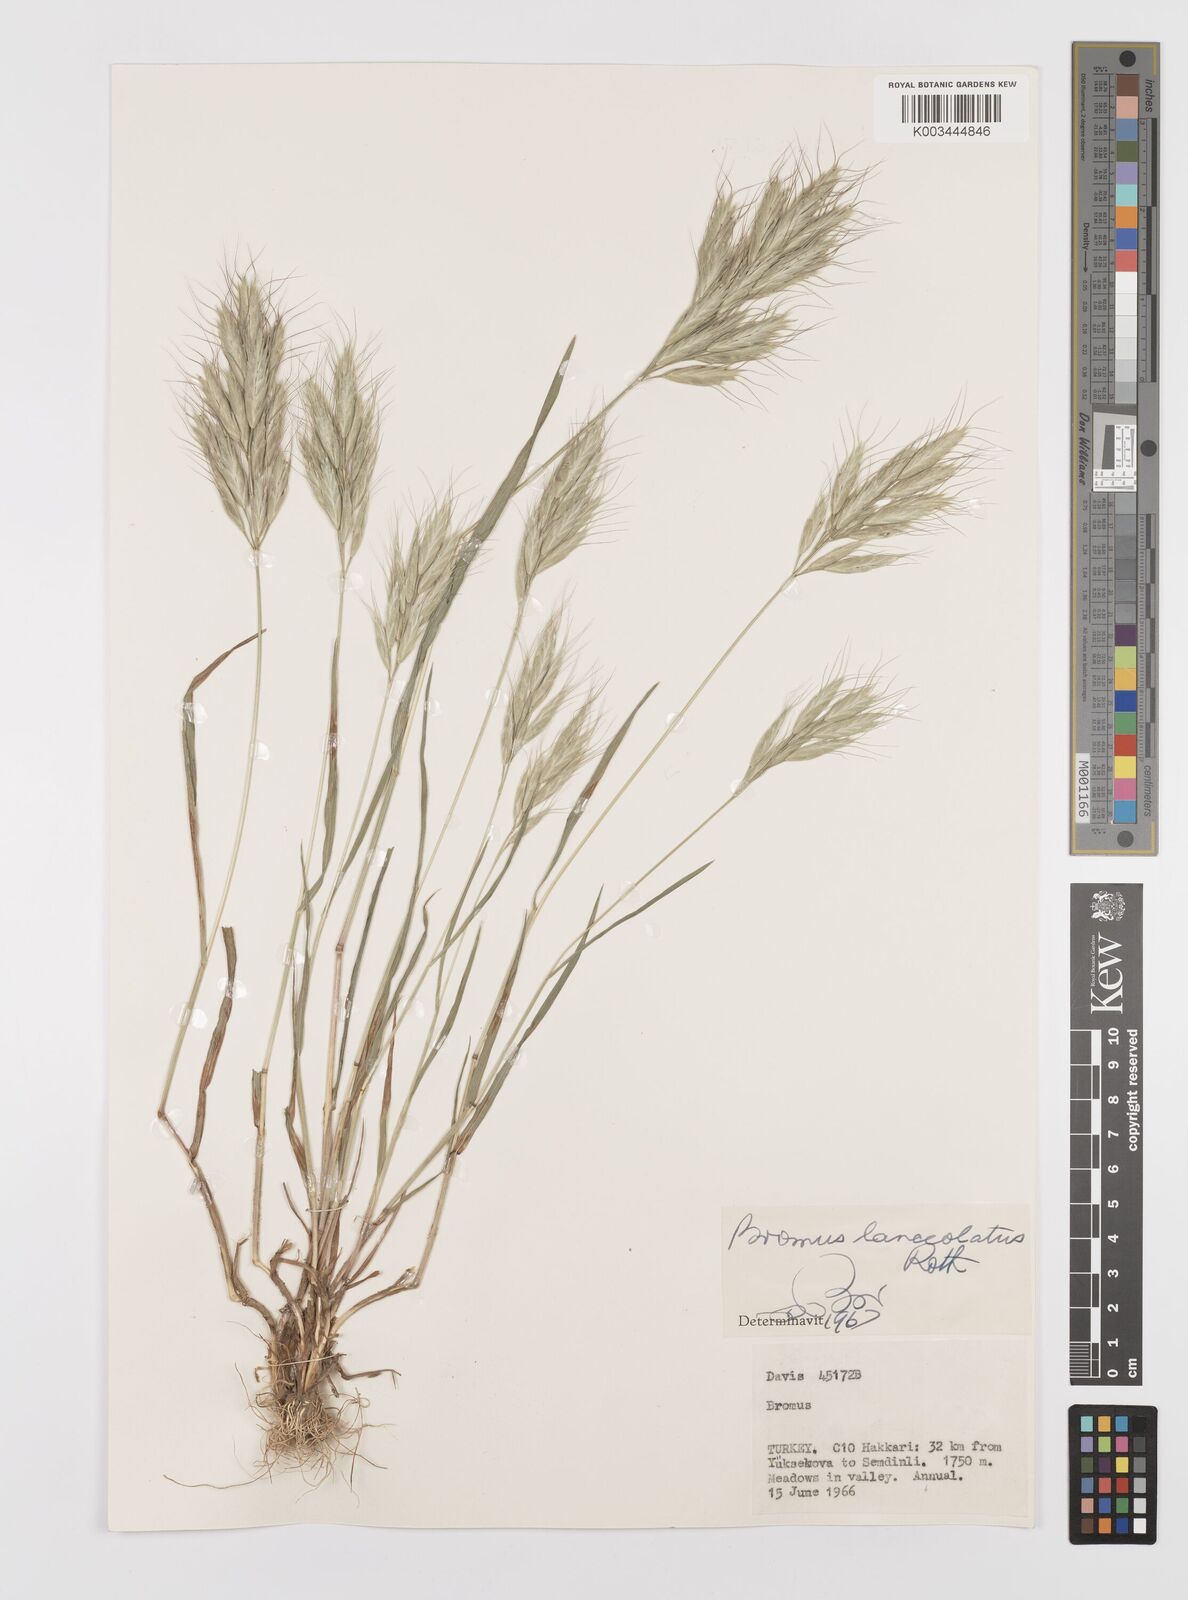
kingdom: Plantae
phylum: Tracheophyta
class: Liliopsida
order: Poales
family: Poaceae
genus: Bromus
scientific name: Bromus lanceolatus
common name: Mediterranean brome
